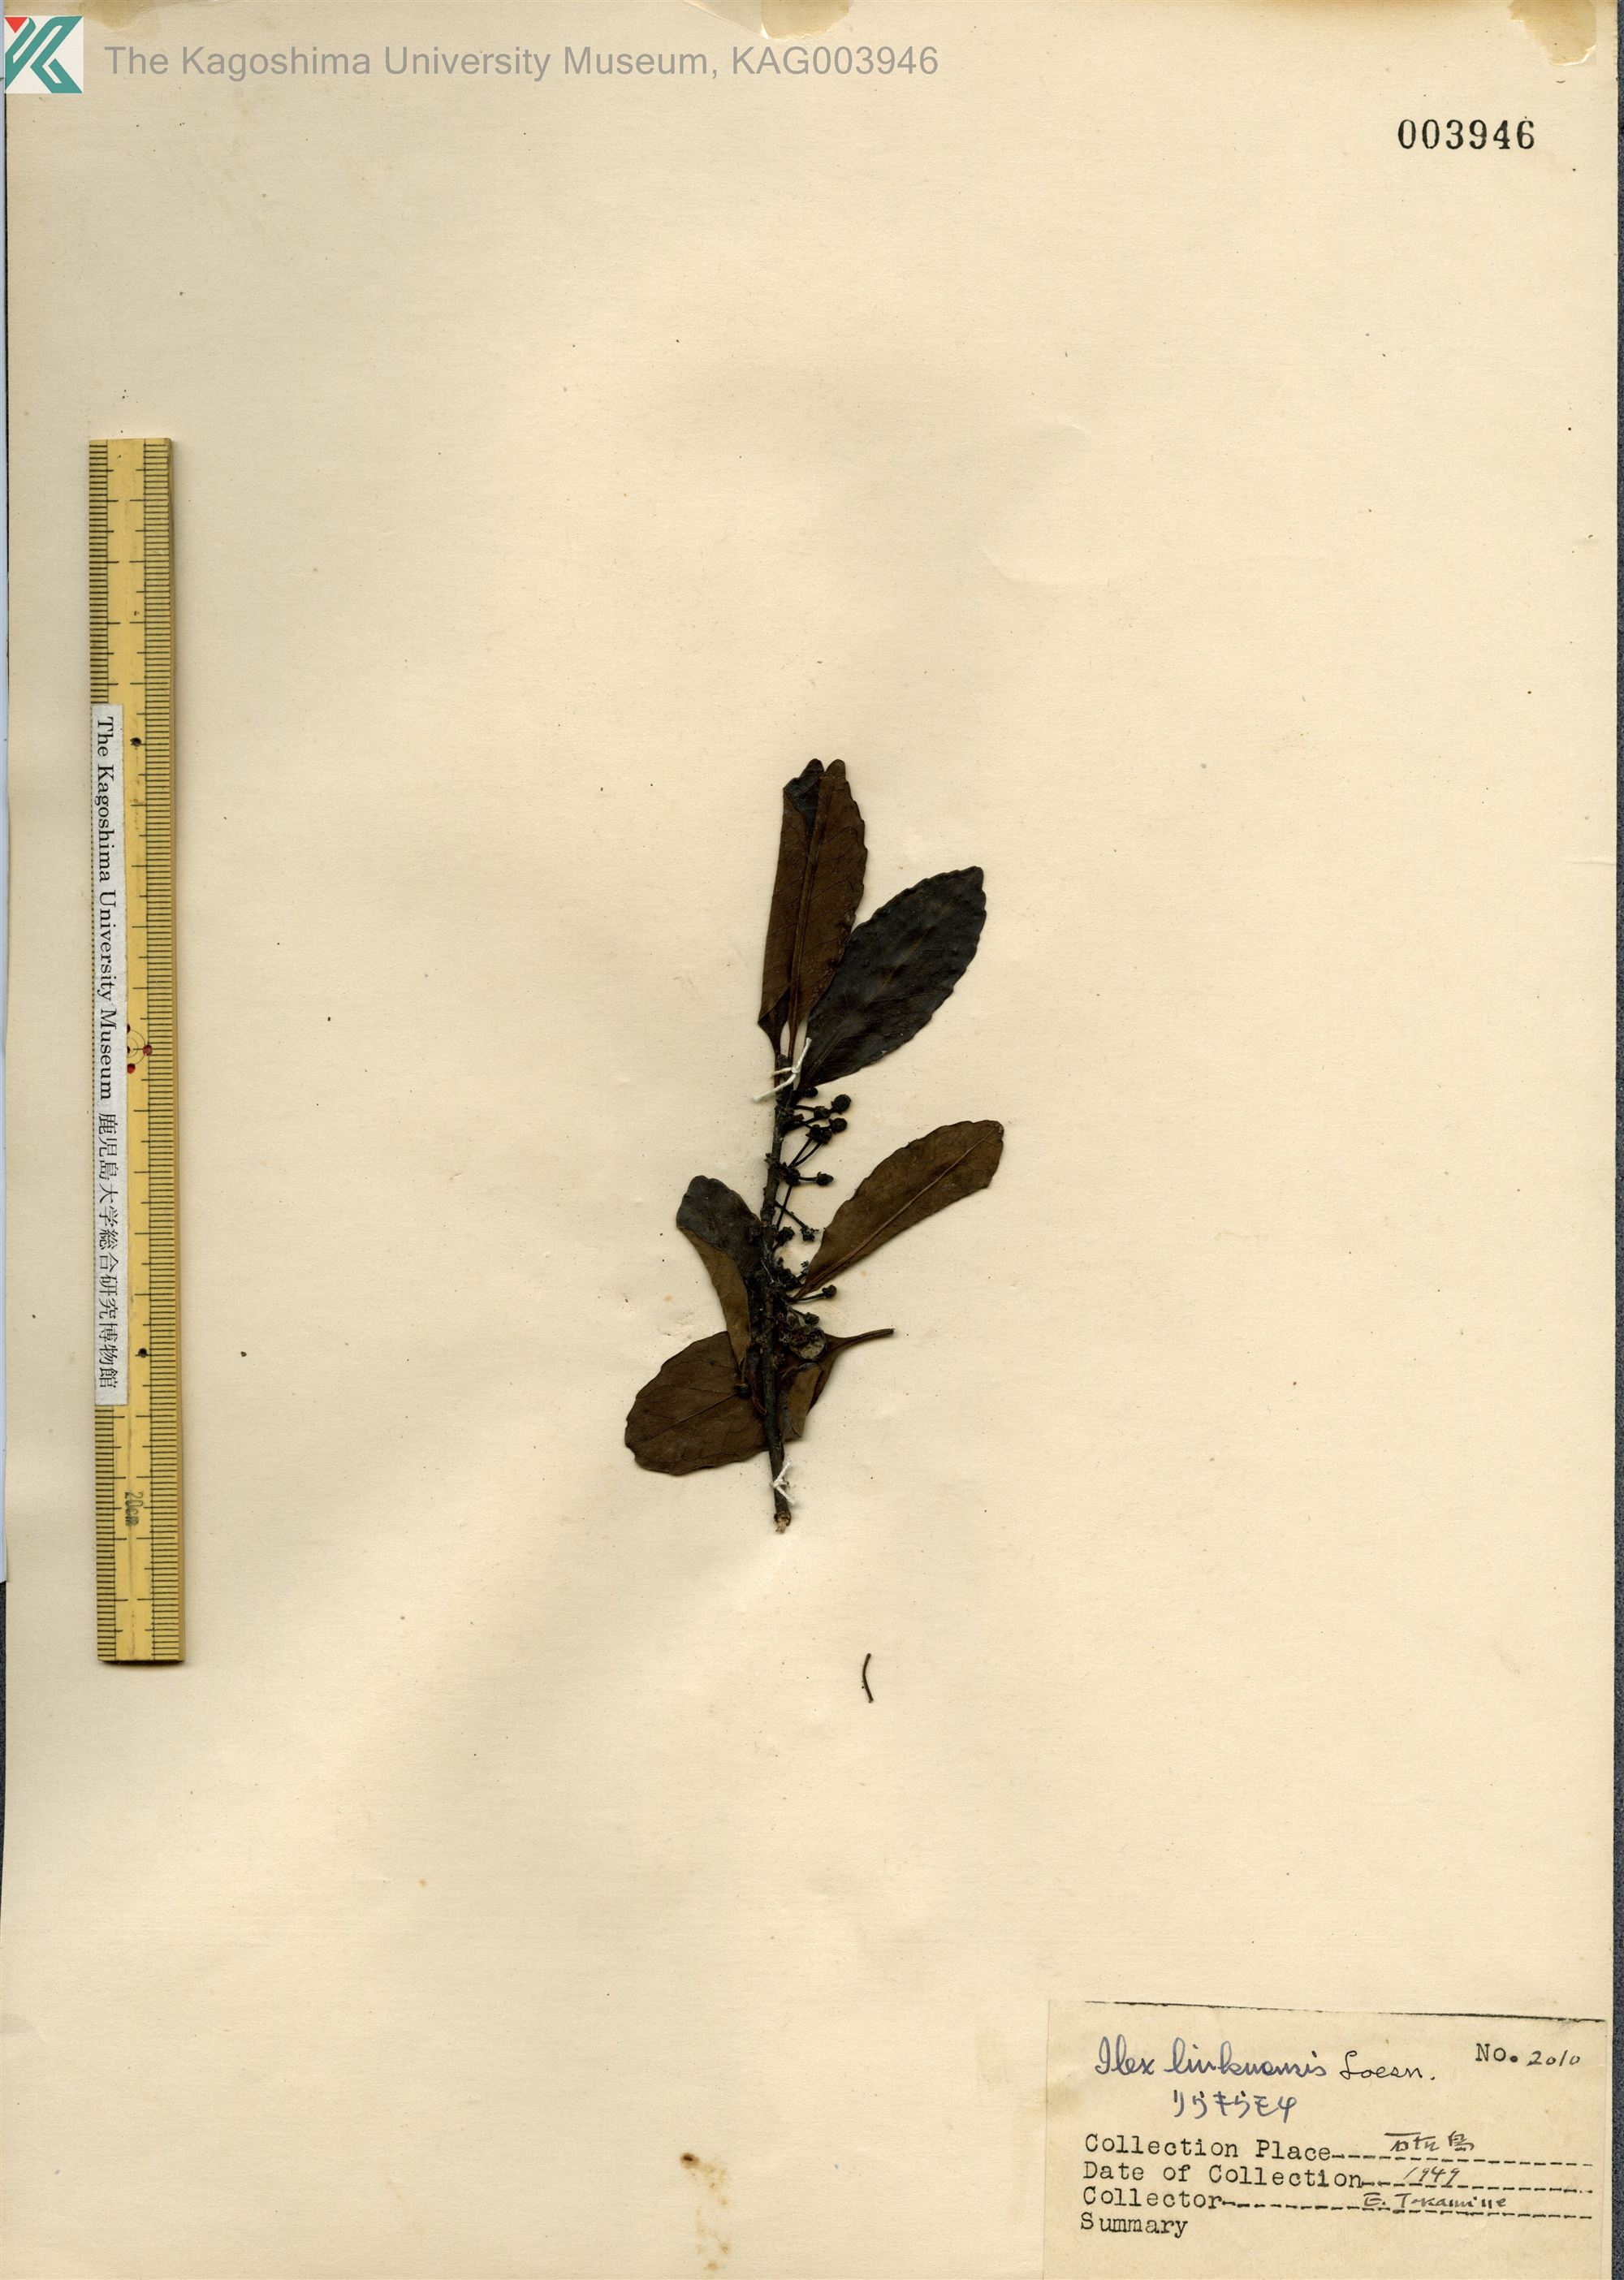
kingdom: Plantae
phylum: Tracheophyta
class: Magnoliopsida
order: Aquifoliales
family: Aquifoliaceae
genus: Ilex
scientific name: Ilex liukiuensis
